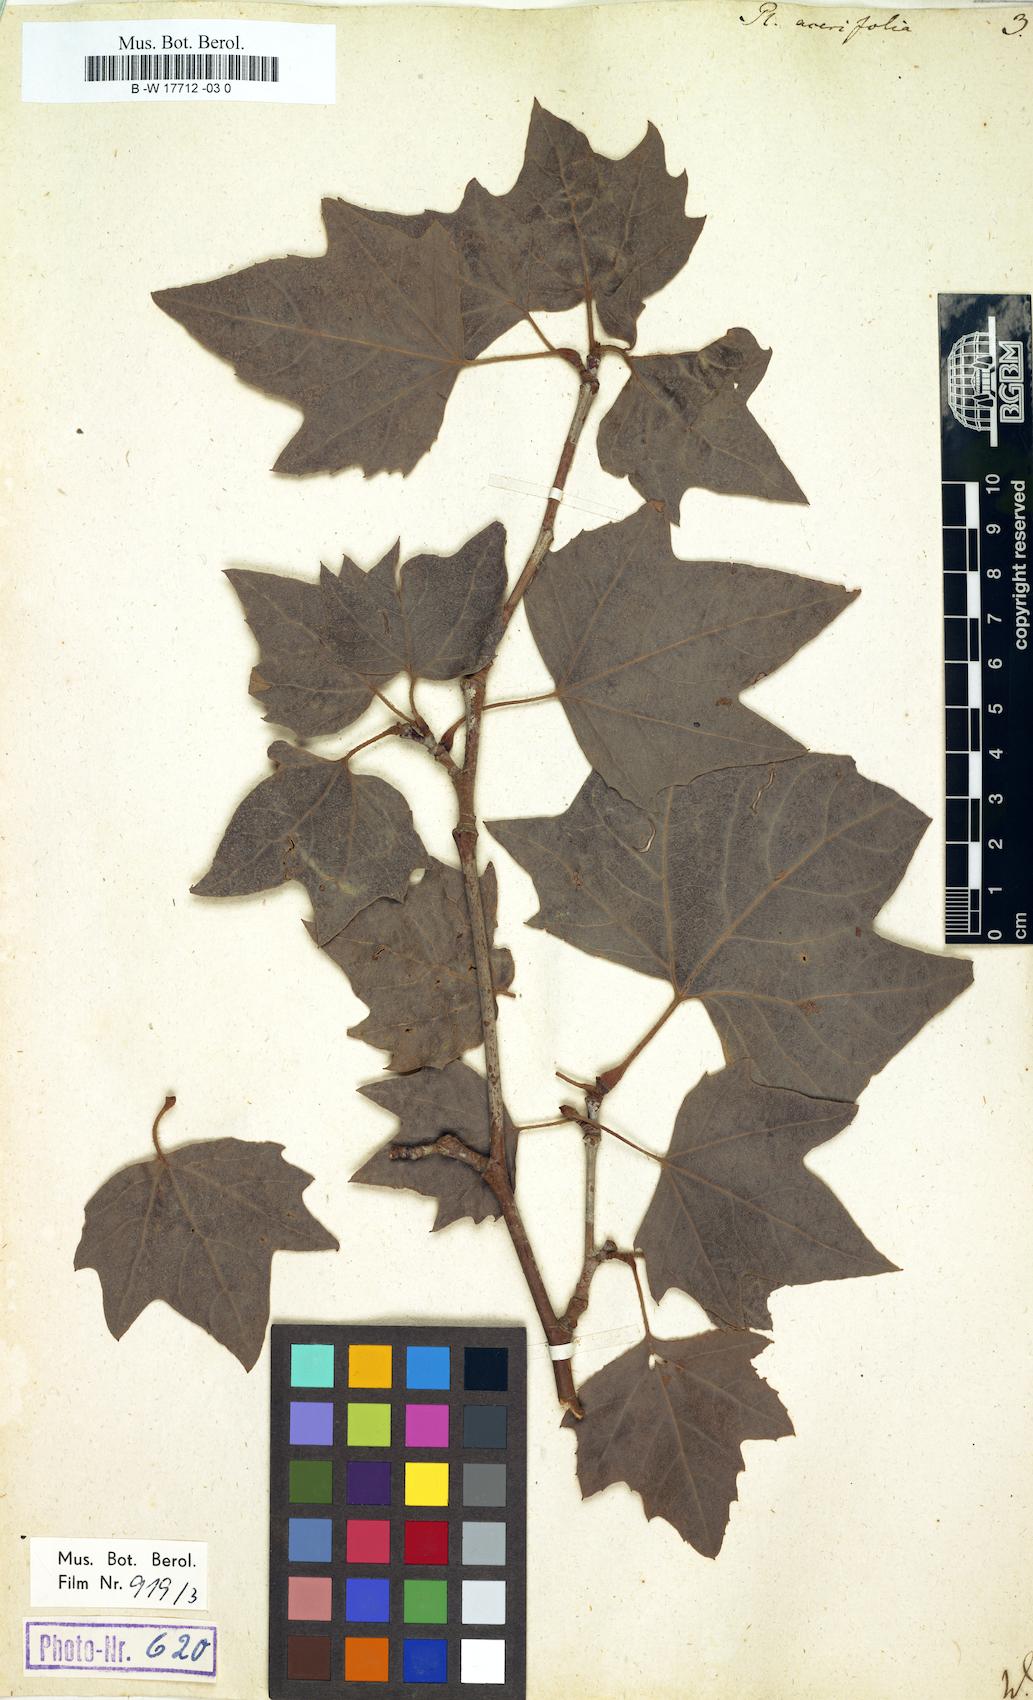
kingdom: Plantae
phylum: Tracheophyta
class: Magnoliopsida
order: Proteales
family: Platanaceae
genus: Platanus
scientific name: Platanus hispanica
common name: London plane
